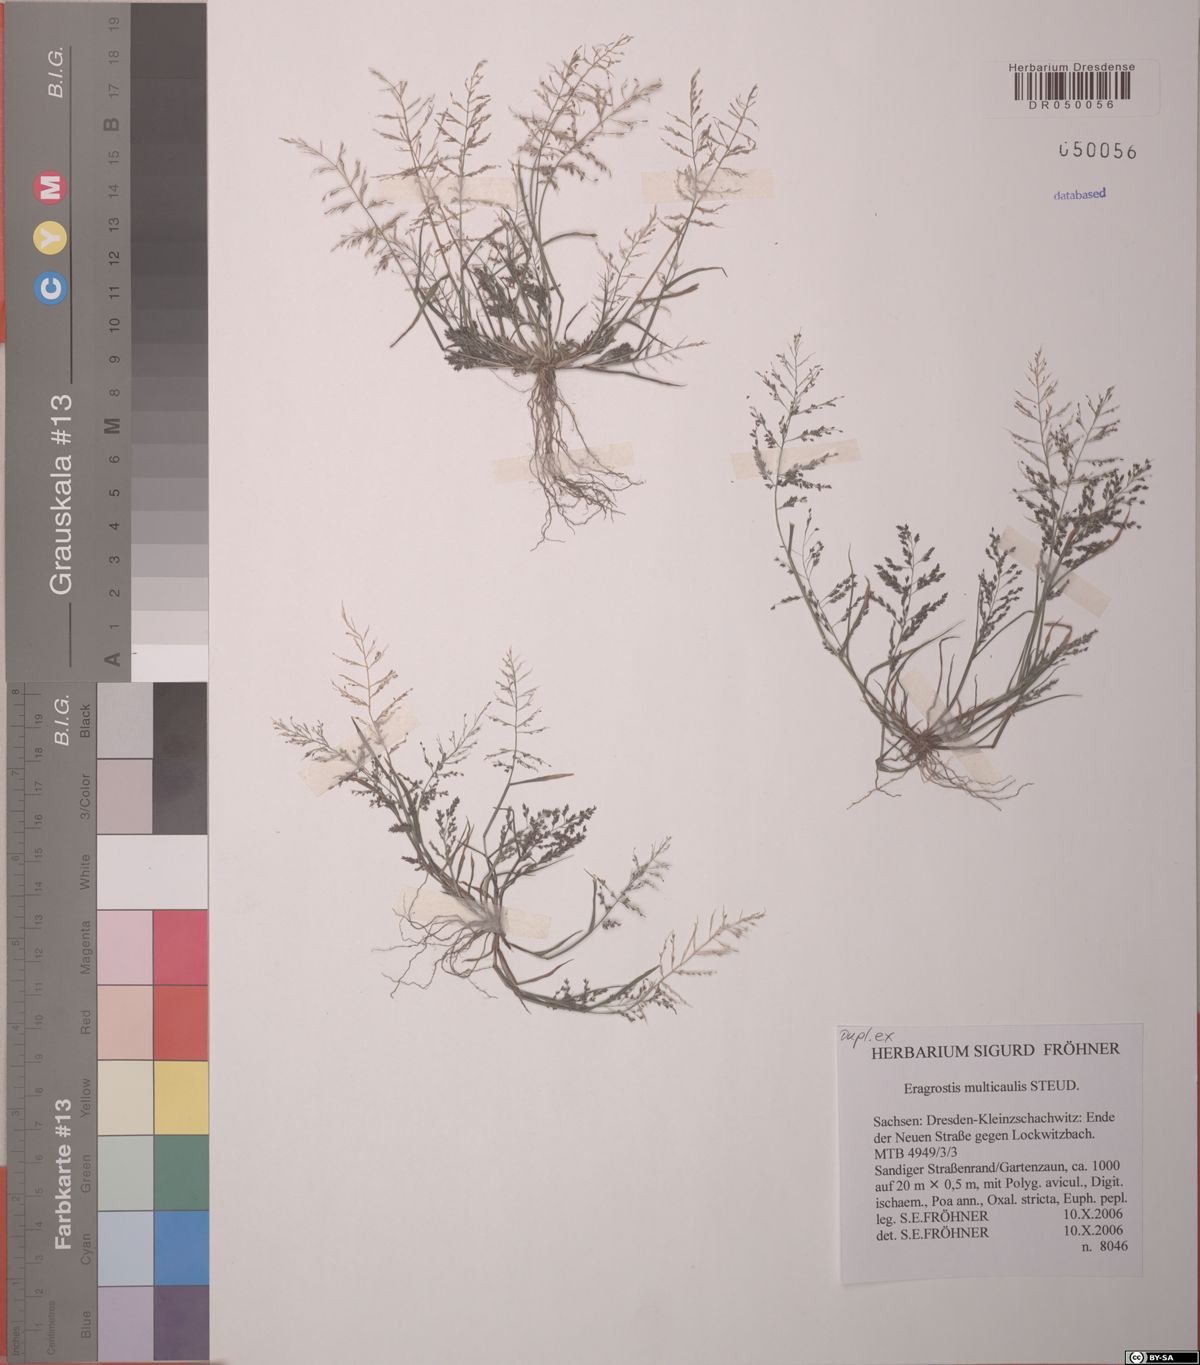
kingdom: Plantae
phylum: Tracheophyta
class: Liliopsida
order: Poales
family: Poaceae
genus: Eragrostis
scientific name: Eragrostis multicaulis
